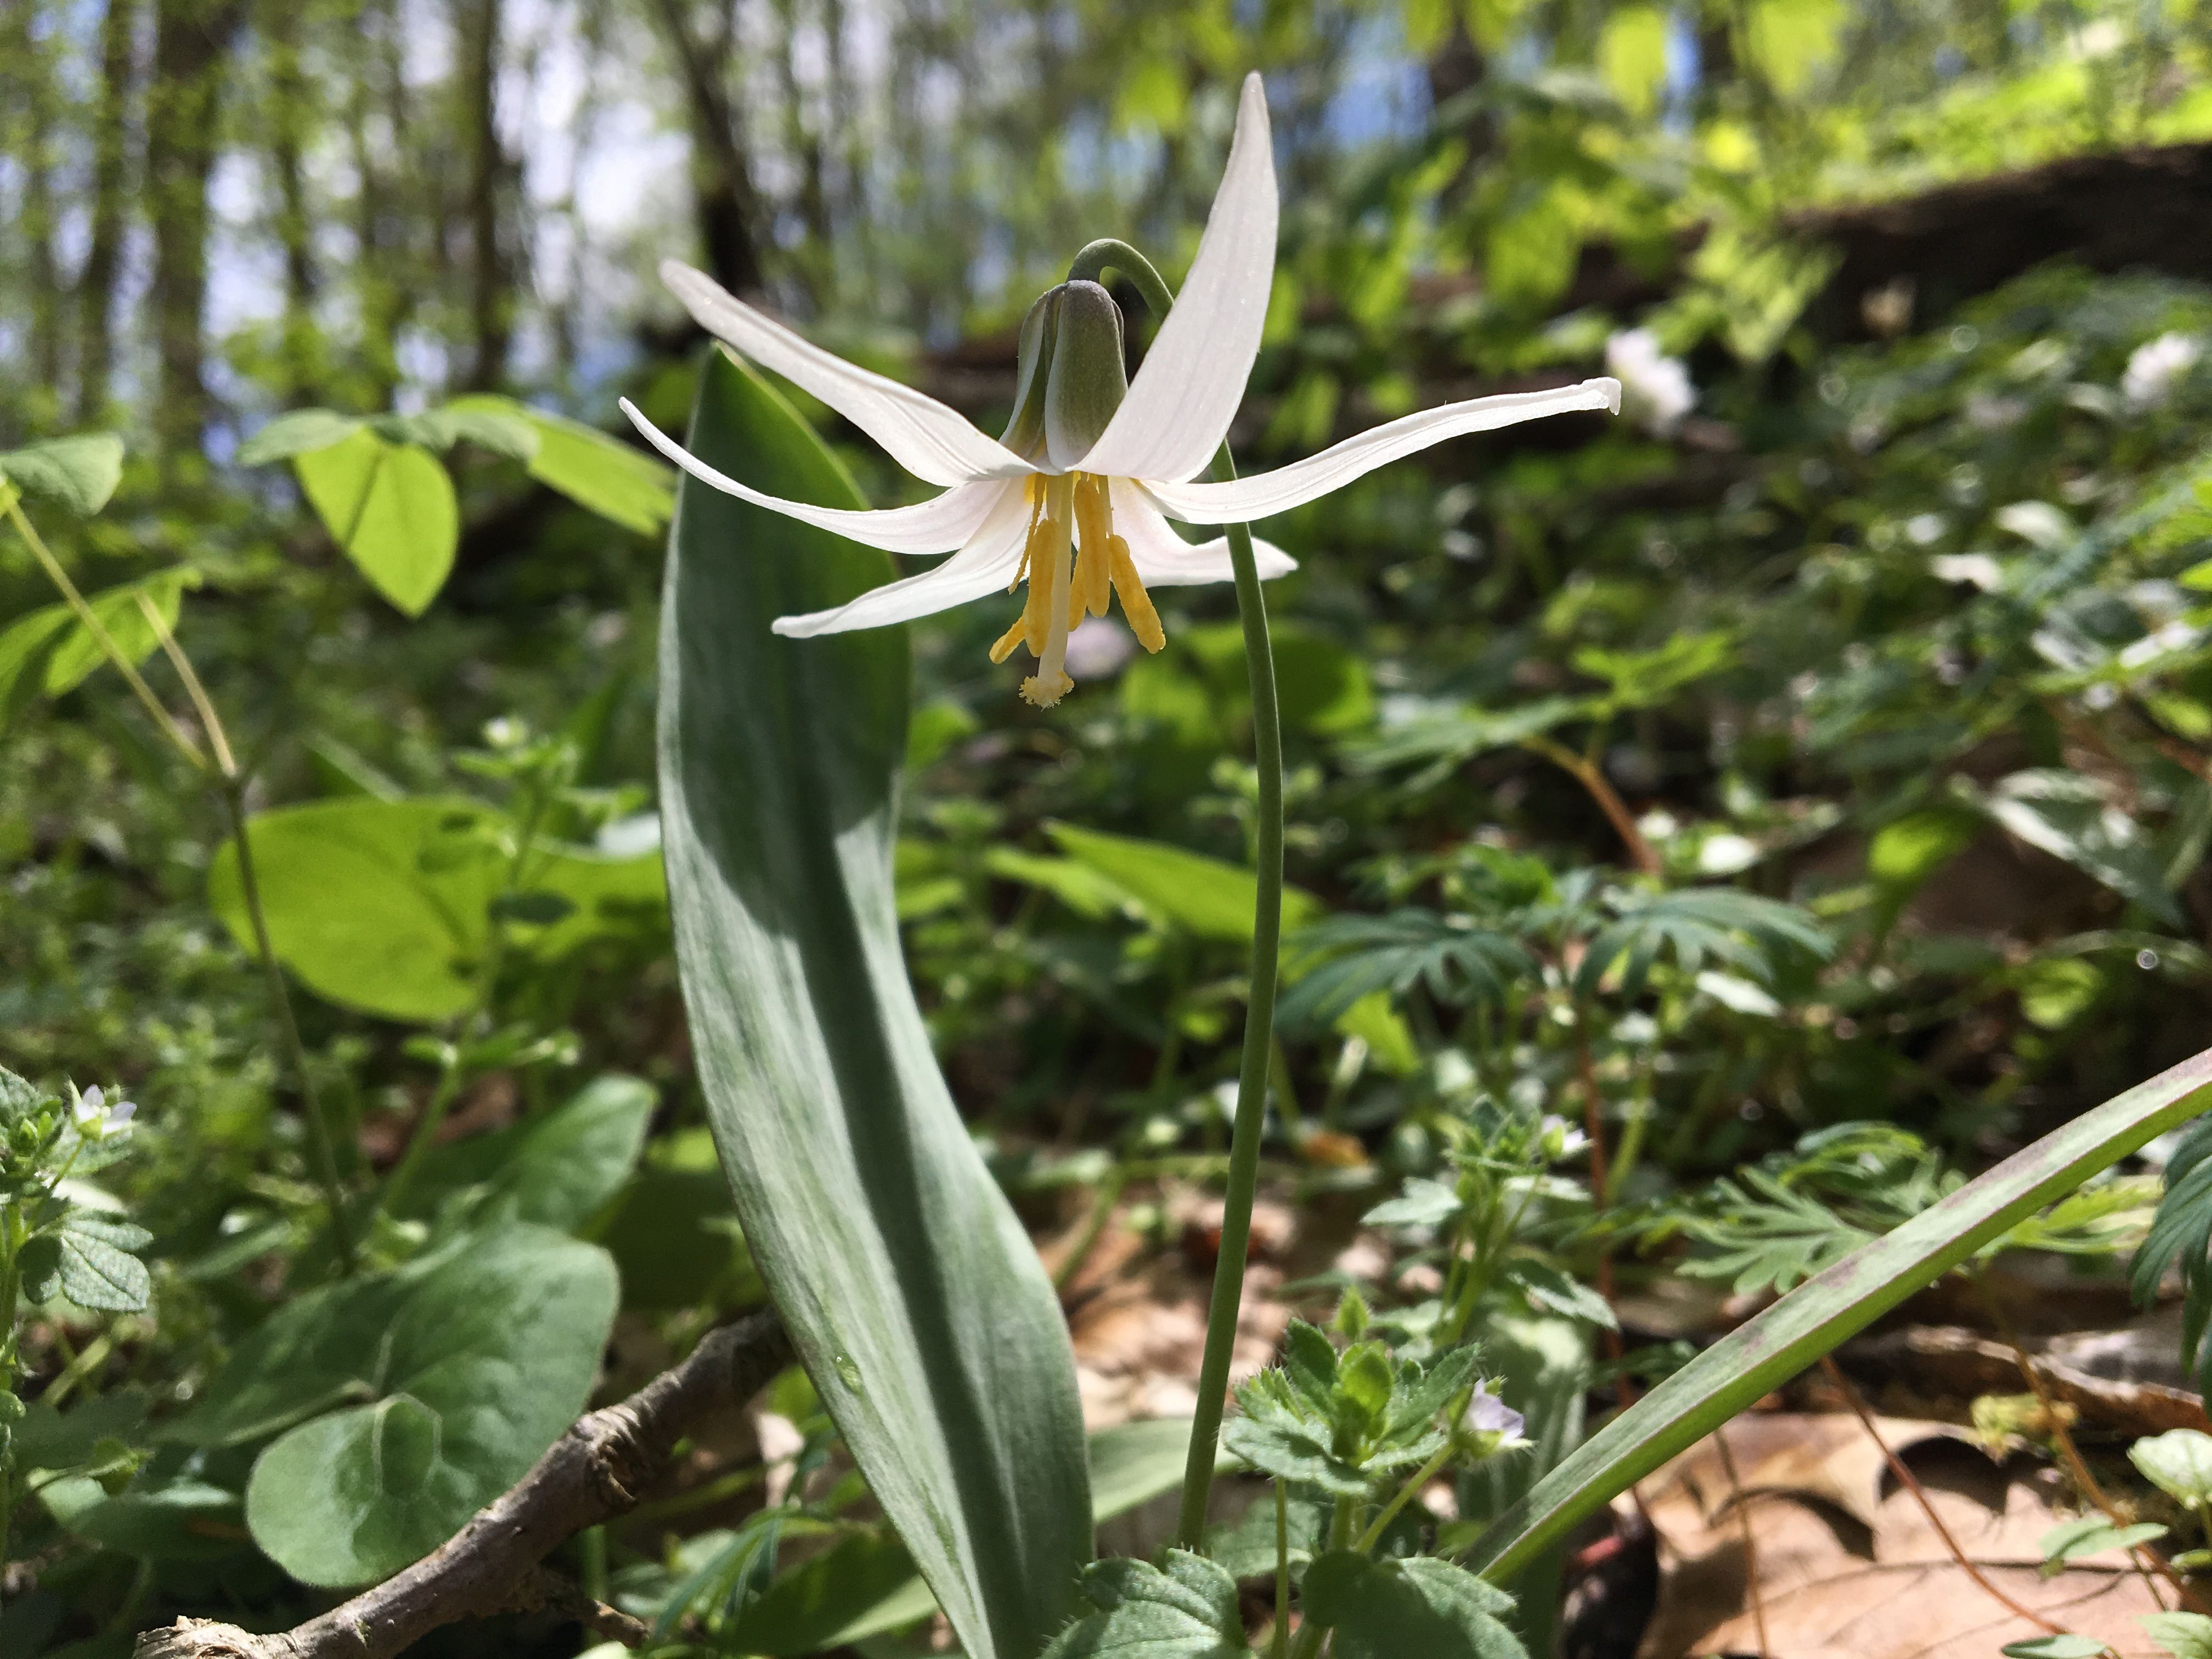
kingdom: Plantae
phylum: Tracheophyta
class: Liliopsida
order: Liliales
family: Liliaceae
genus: Erythronium
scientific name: Erythronium albidum
